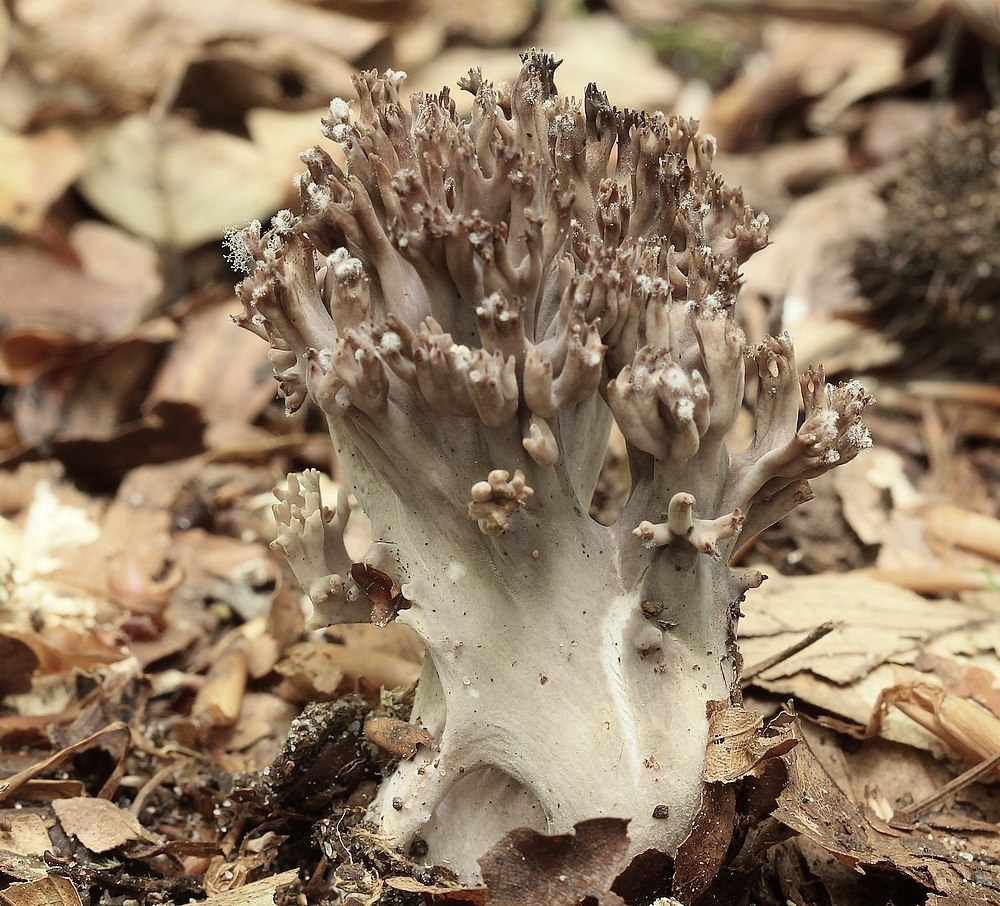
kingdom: Fungi
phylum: Basidiomycota
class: Agaricomycetes
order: Gomphales
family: Gomphaceae
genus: Ramaria
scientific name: Ramaria fumigata
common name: violet koralsvamp
